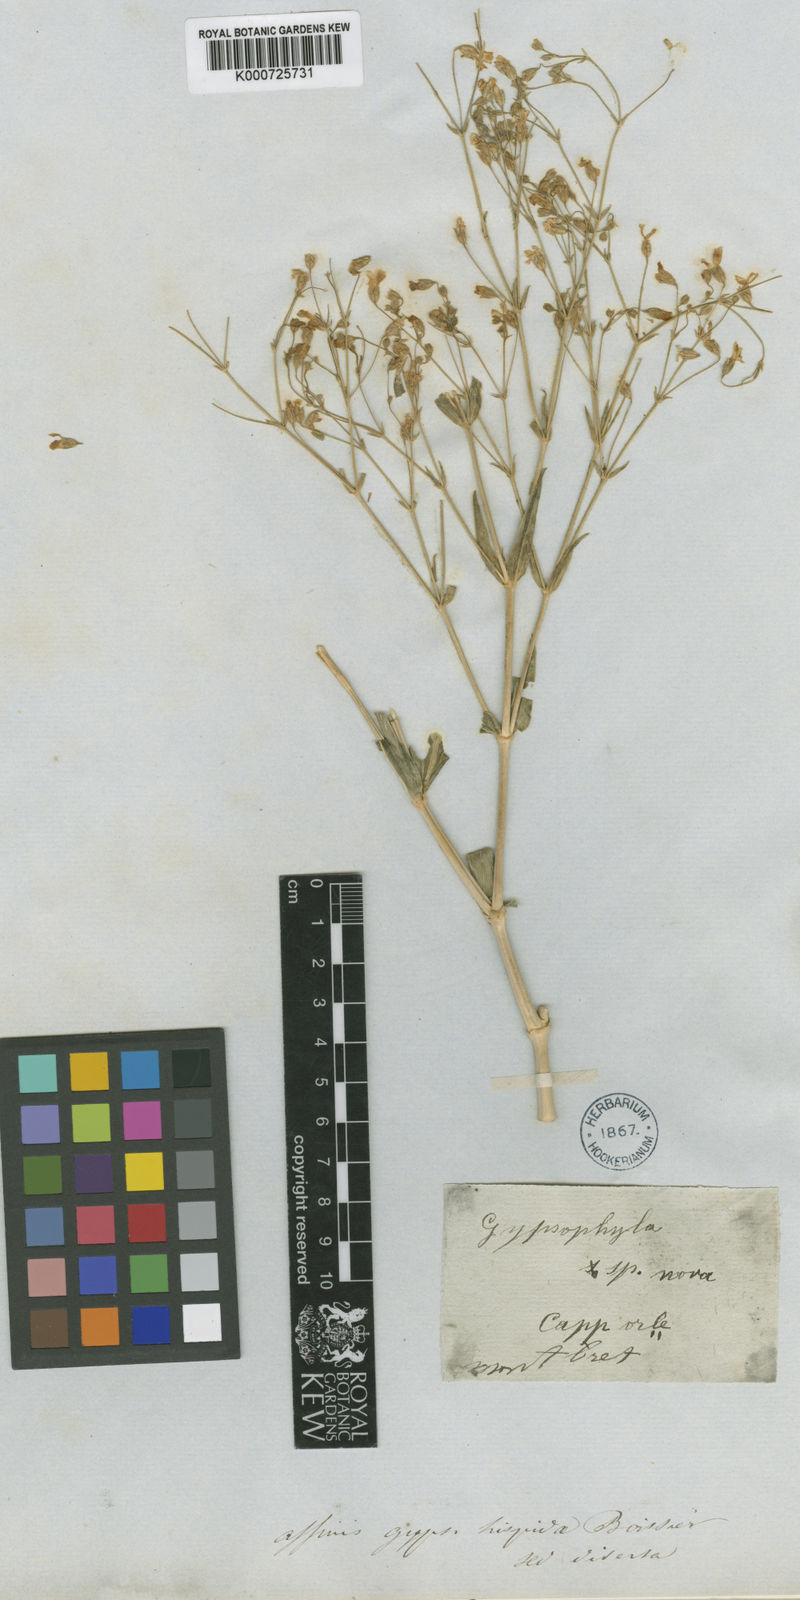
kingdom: Plantae
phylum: Tracheophyta
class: Magnoliopsida
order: Caryophyllales
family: Caryophyllaceae
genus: Gypsophila
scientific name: Gypsophila hispida
